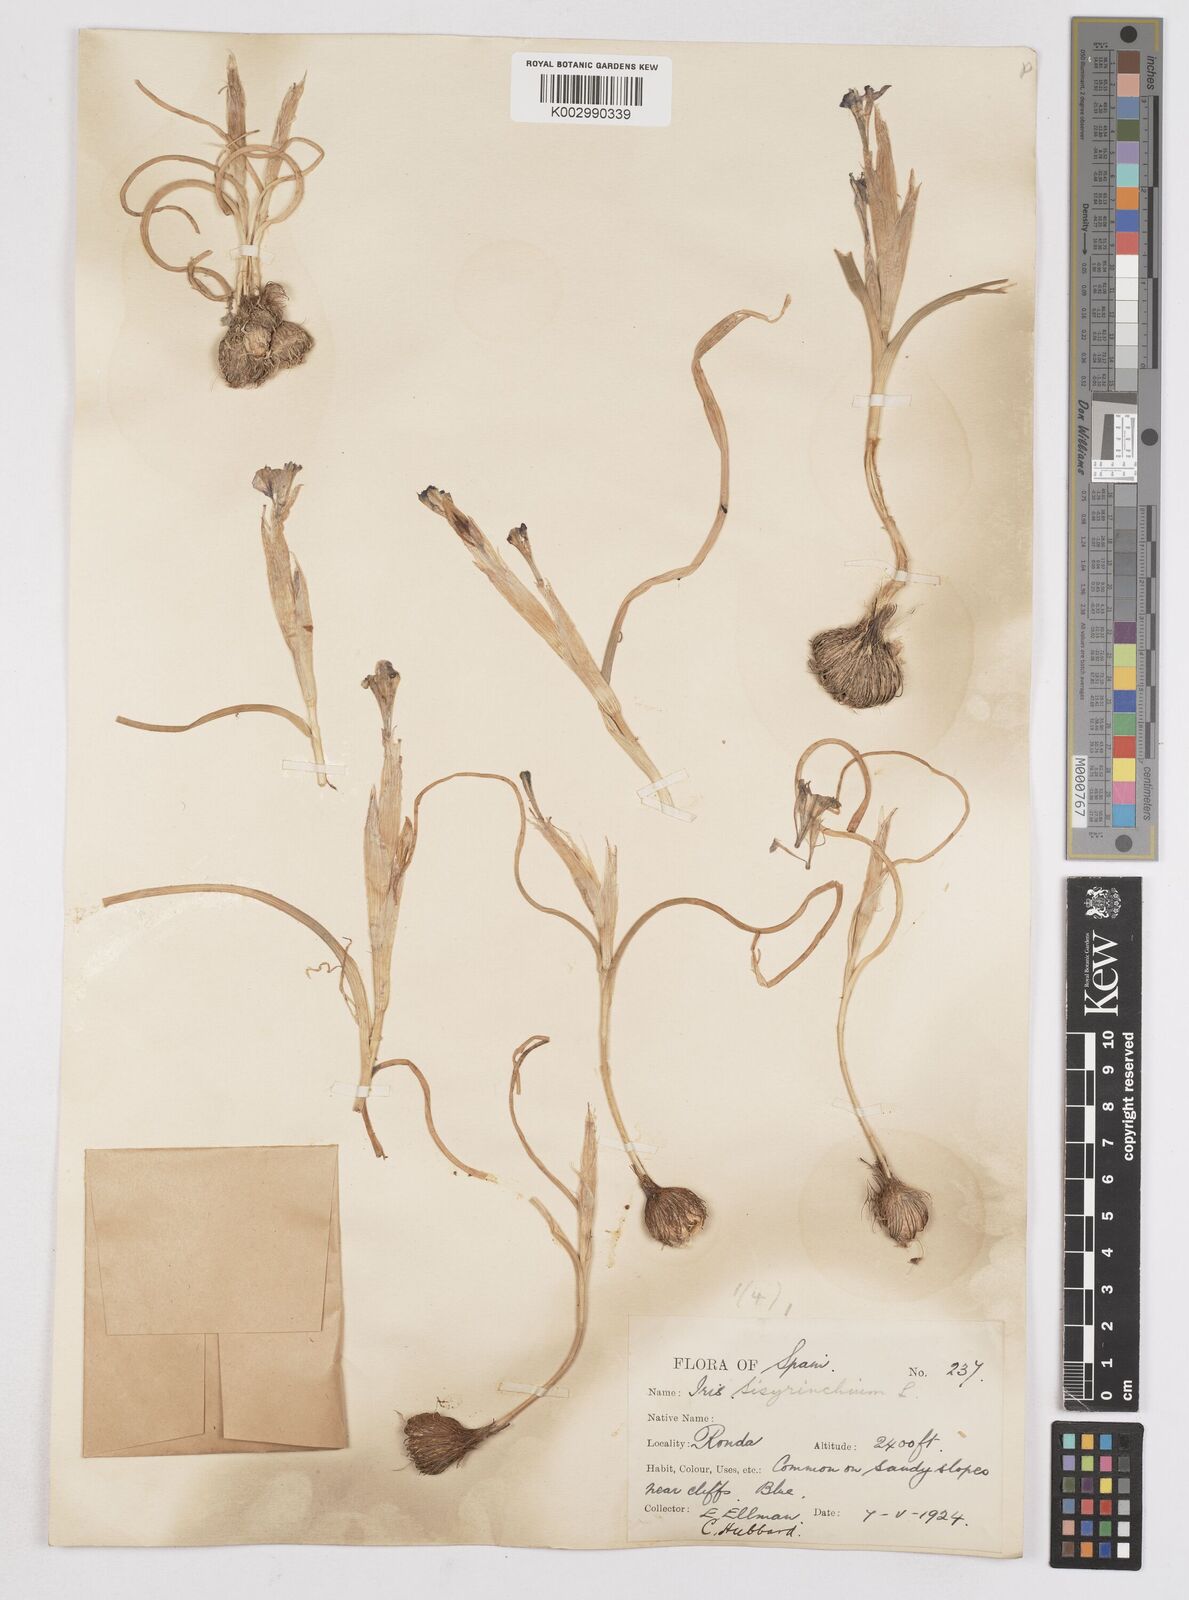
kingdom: Plantae
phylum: Tracheophyta
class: Liliopsida
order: Asparagales
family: Iridaceae
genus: Moraea
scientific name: Moraea sisyrinchium
